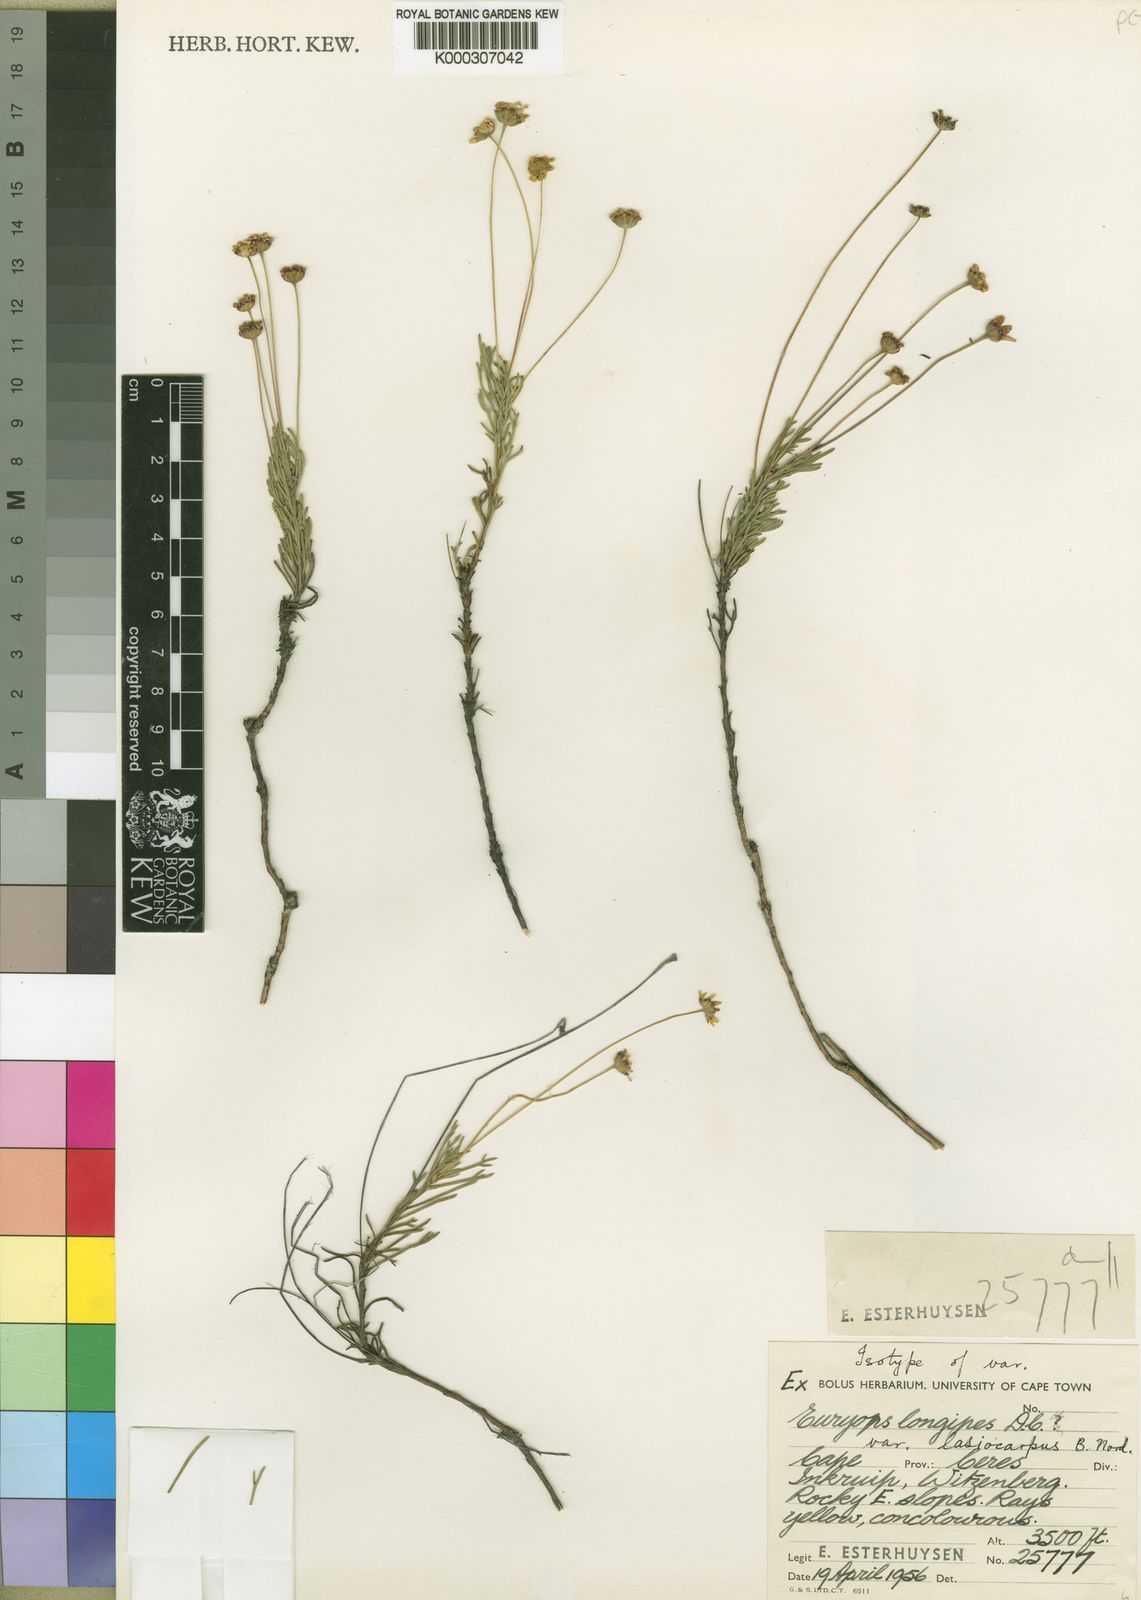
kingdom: Plantae
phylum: Tracheophyta
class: Magnoliopsida
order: Asterales
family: Asteraceae
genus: Euryops
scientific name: Euryops longipes
